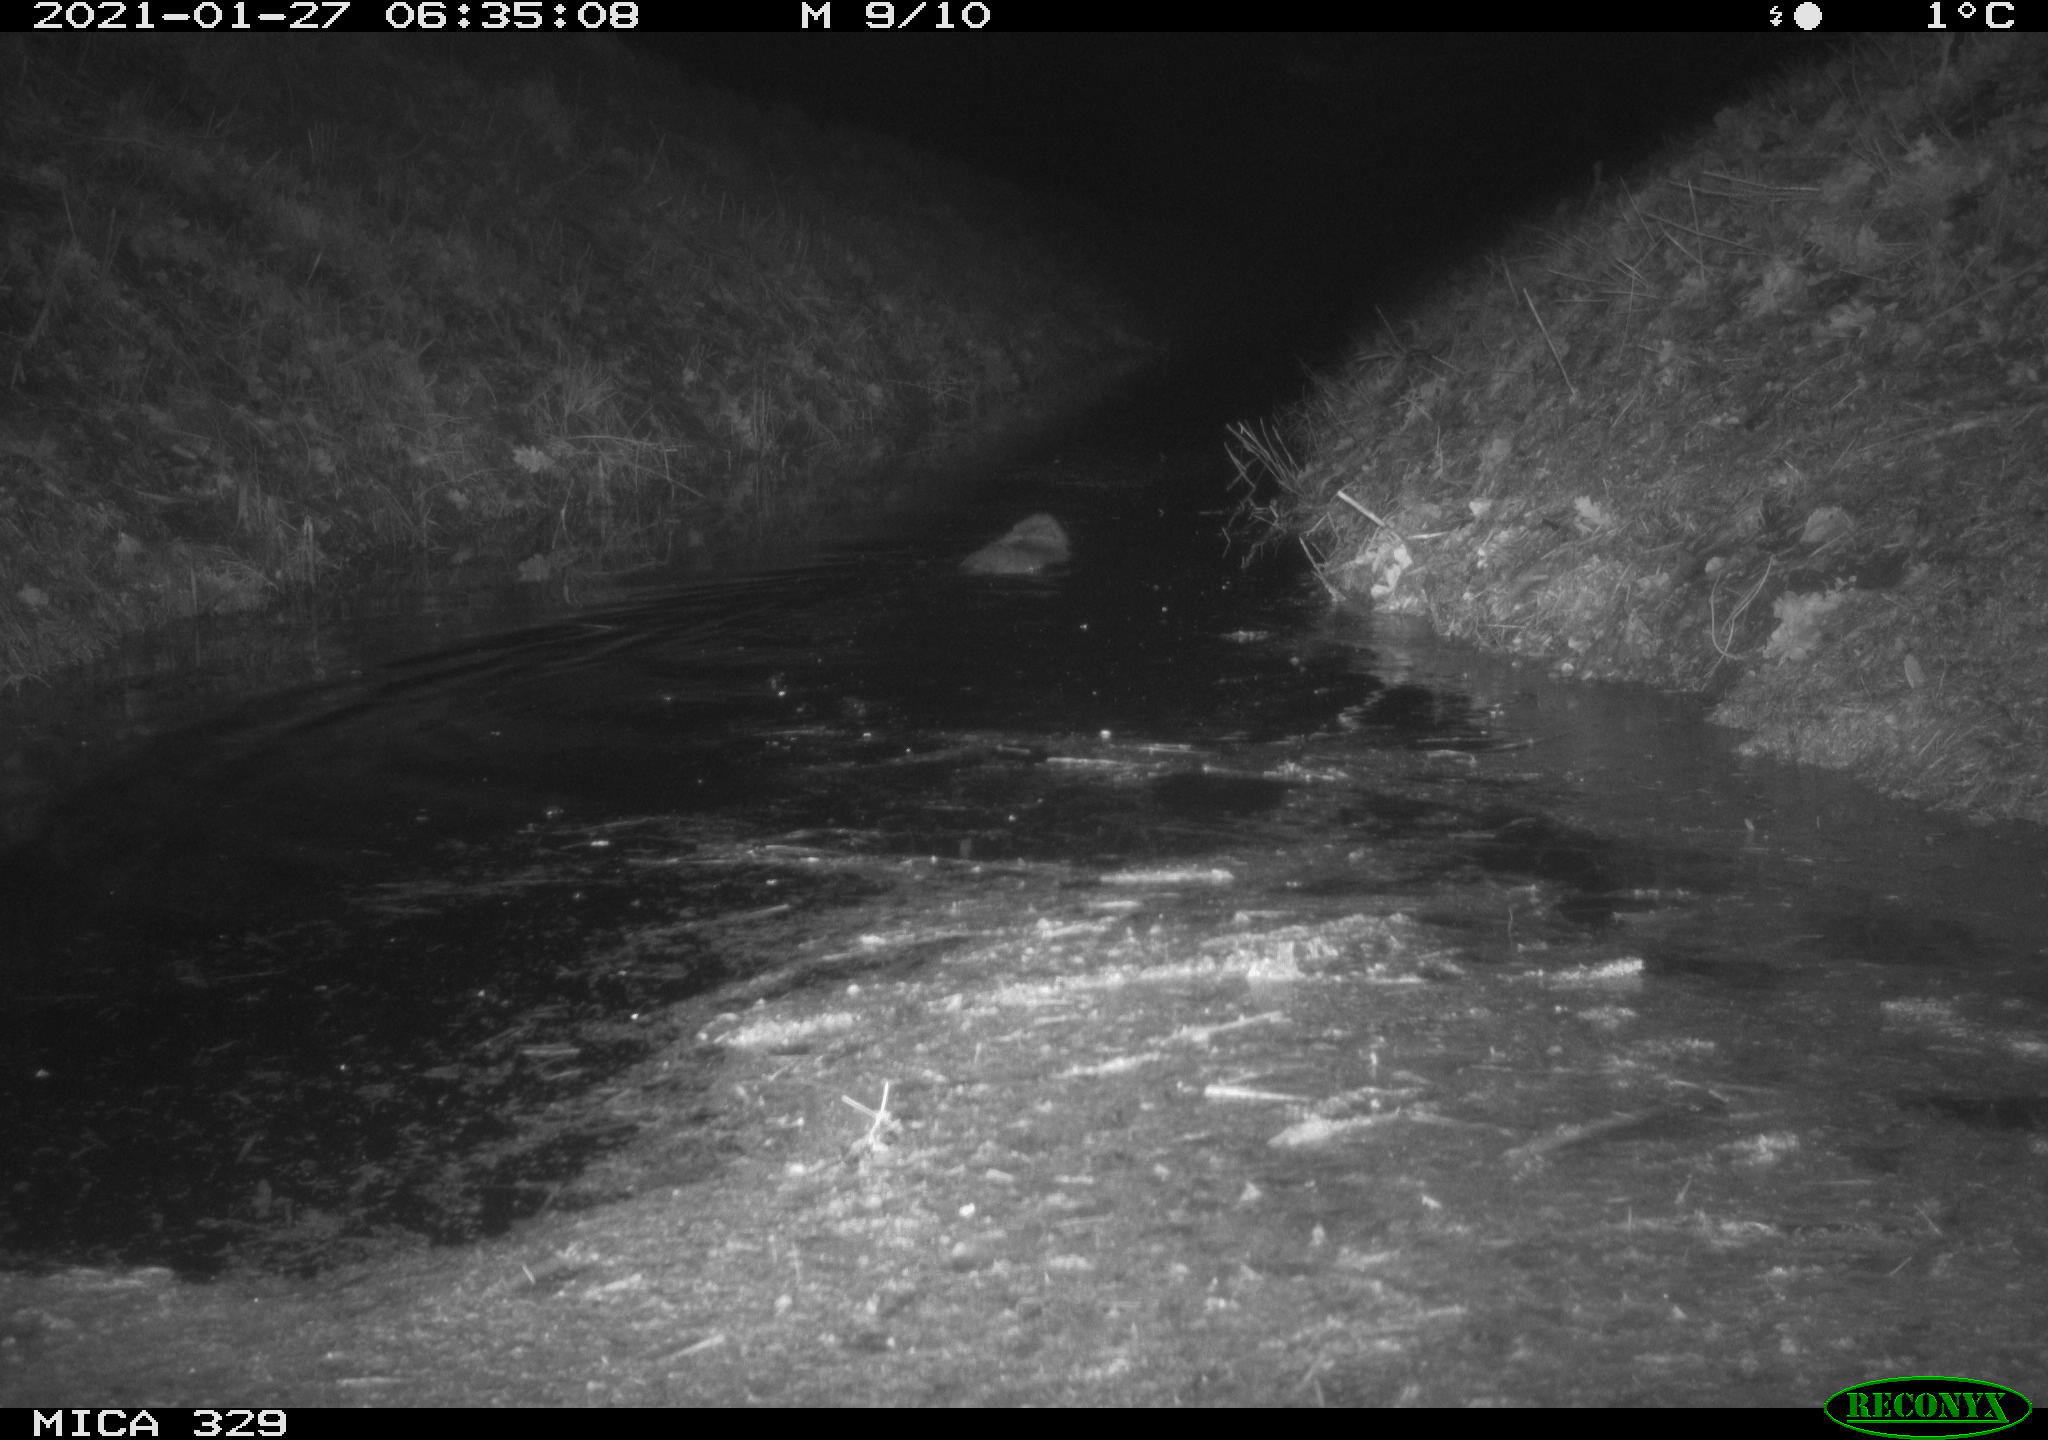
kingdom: Animalia
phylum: Chordata
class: Mammalia
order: Rodentia
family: Myocastoridae
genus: Myocastor
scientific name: Myocastor coypus
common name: Coypu
